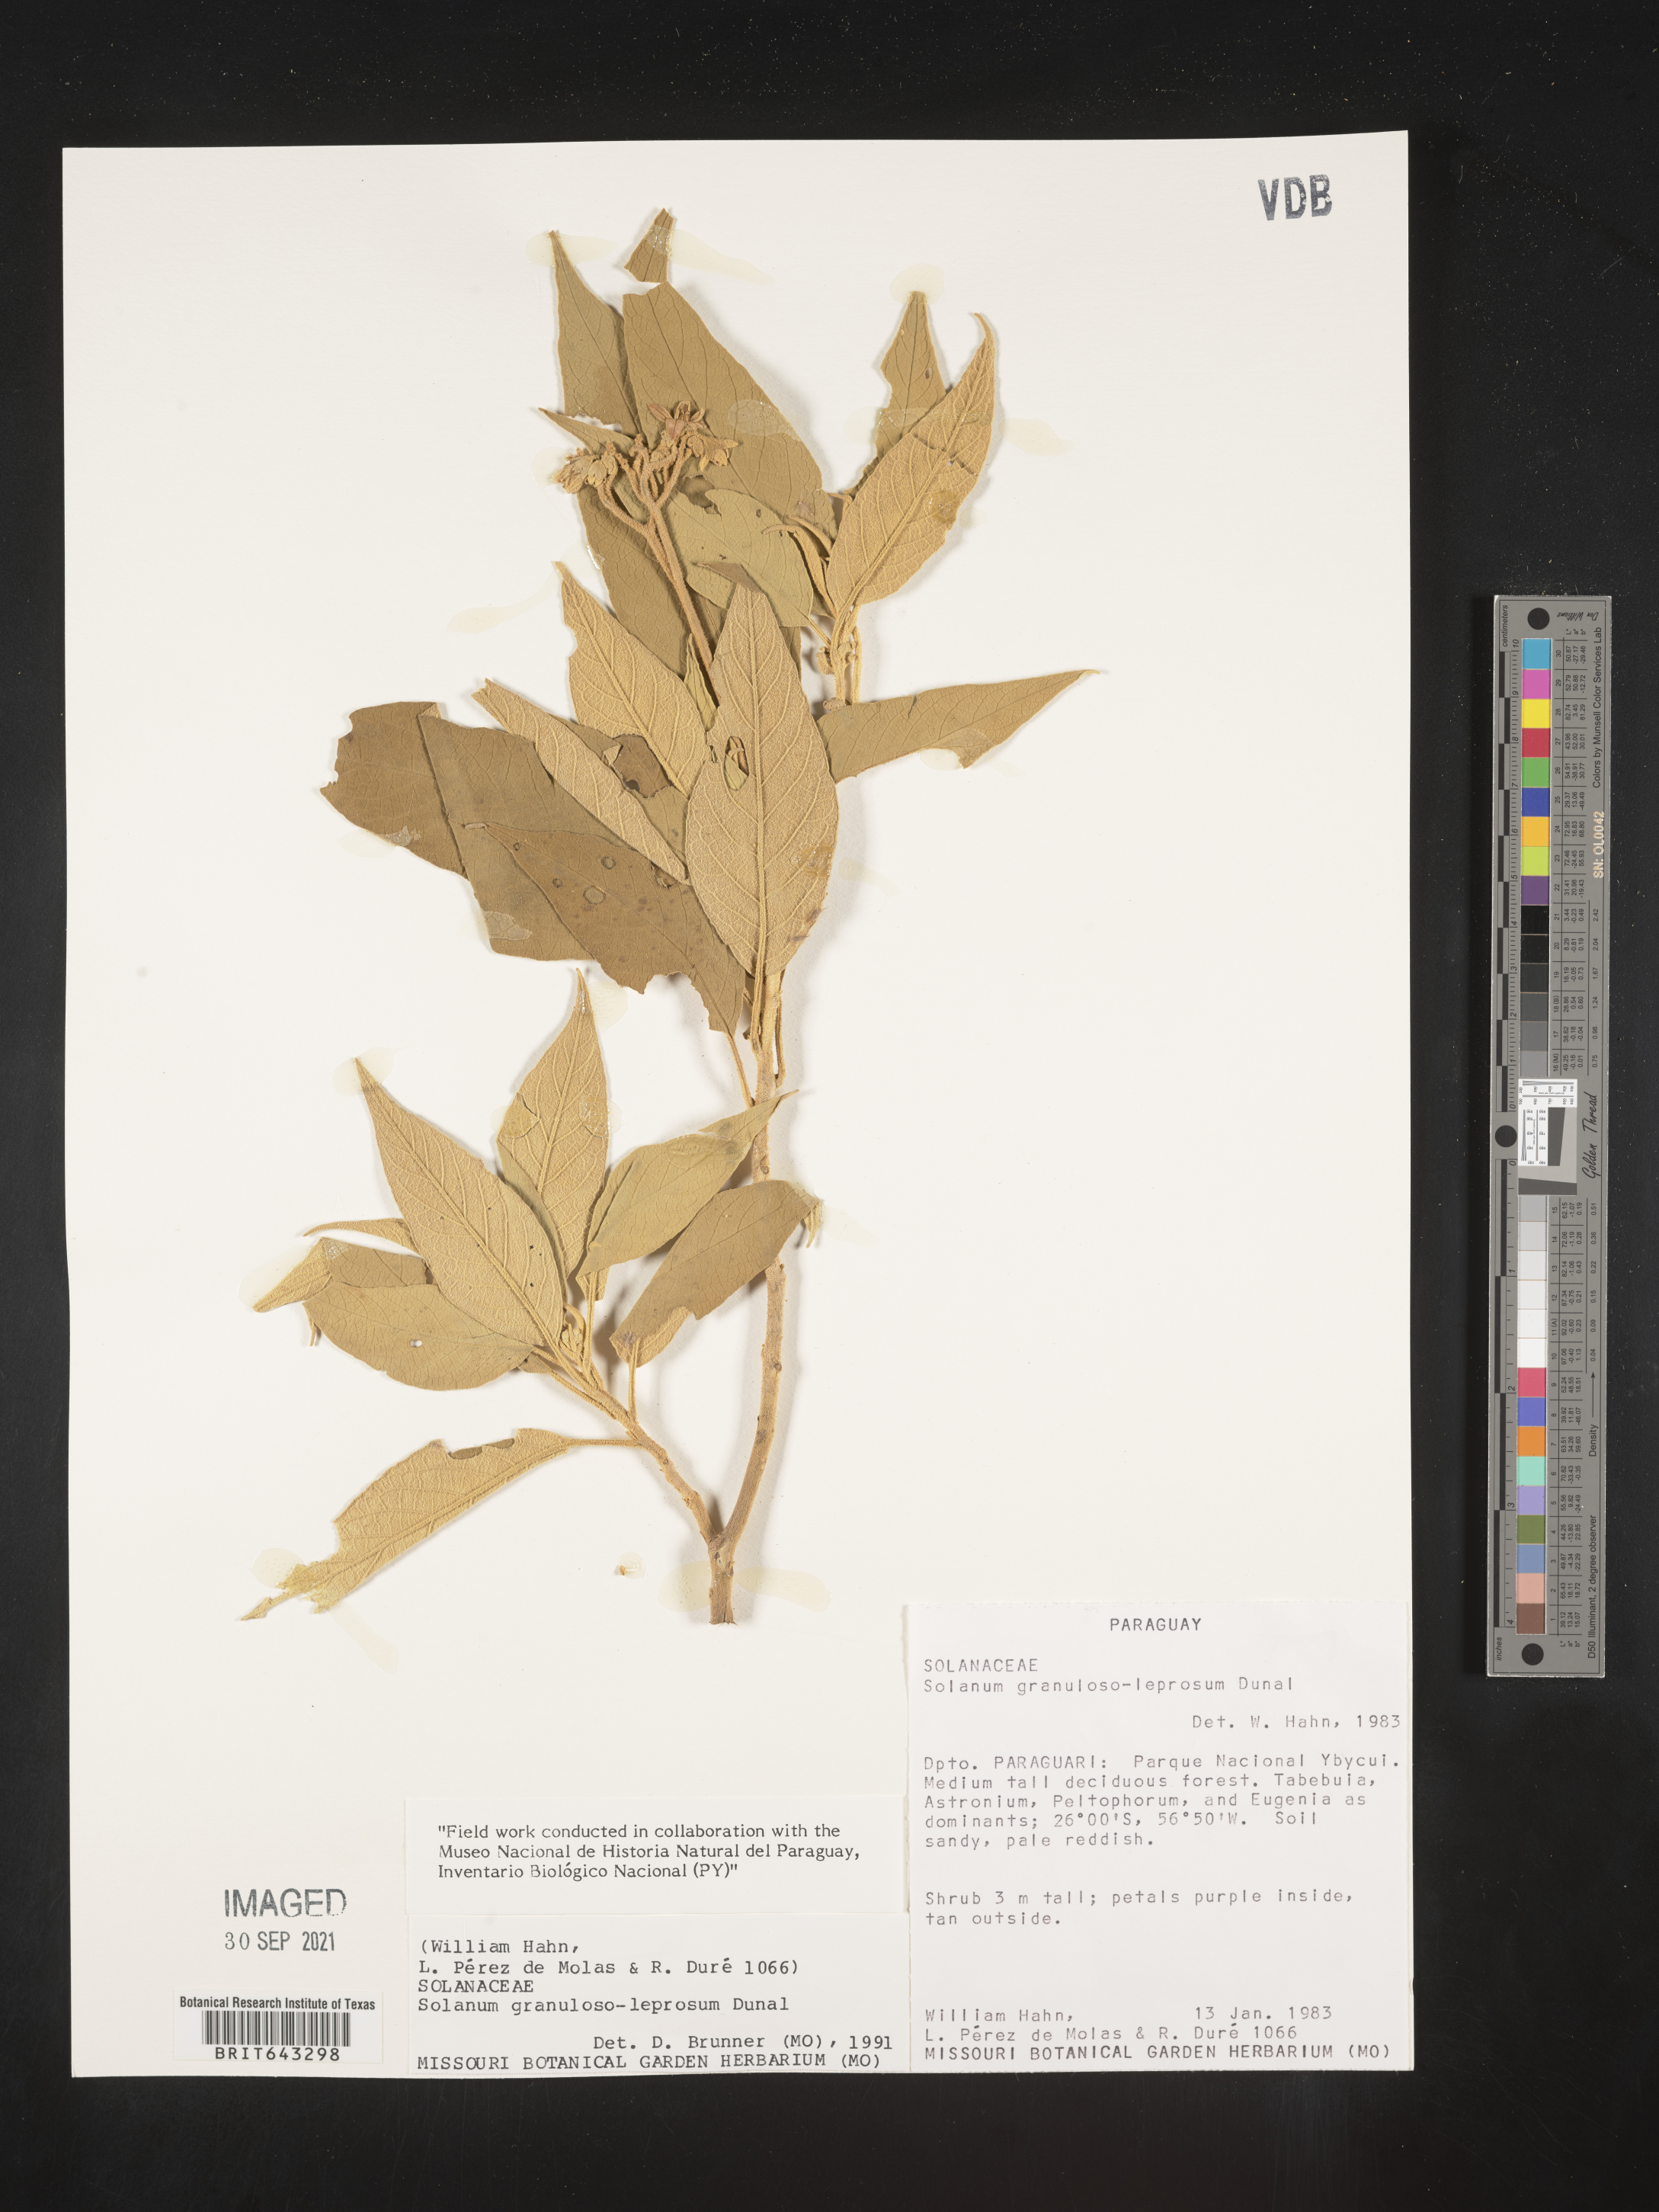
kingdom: Plantae
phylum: Tracheophyta
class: Magnoliopsida
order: Solanales
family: Solanaceae
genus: Solanum
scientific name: Solanum
